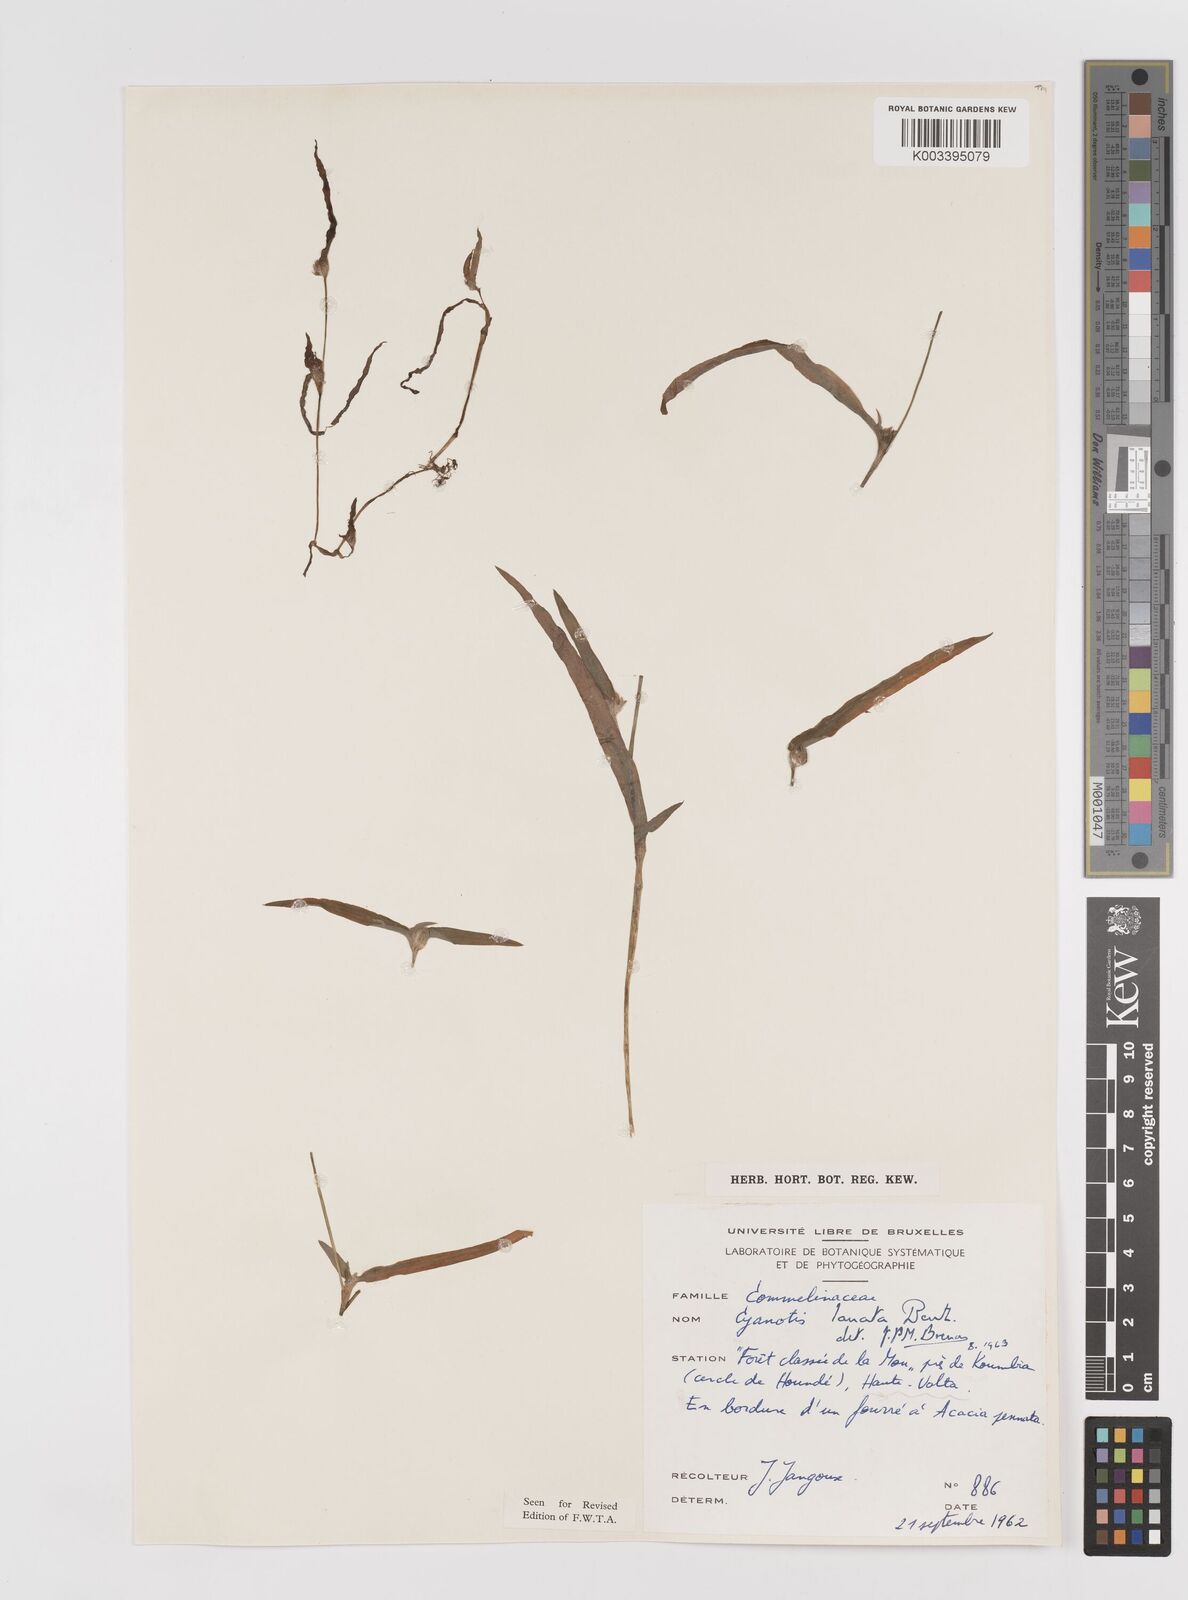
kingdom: Plantae
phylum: Tracheophyta
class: Liliopsida
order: Commelinales
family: Commelinaceae
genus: Cyanotis
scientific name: Cyanotis lanata
